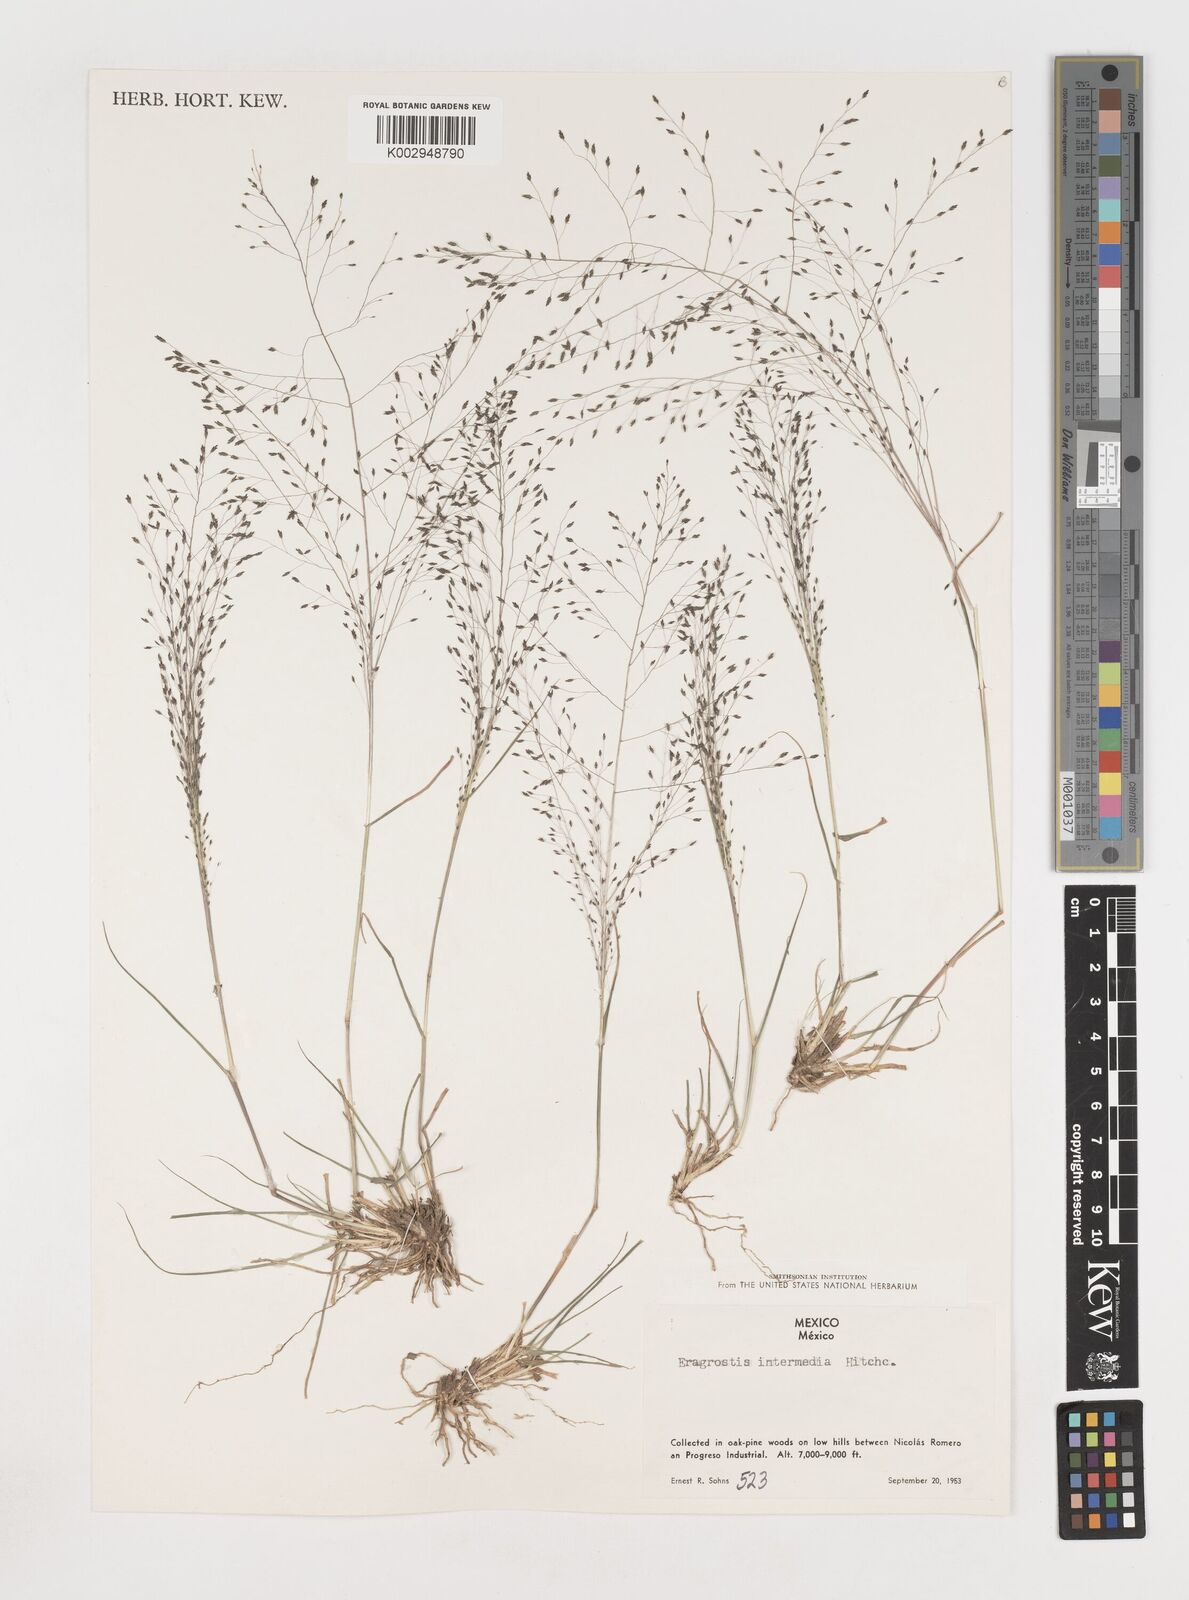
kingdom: Plantae
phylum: Tracheophyta
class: Liliopsida
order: Poales
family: Poaceae
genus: Eragrostis
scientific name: Eragrostis intermedia
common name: Plains love grass
